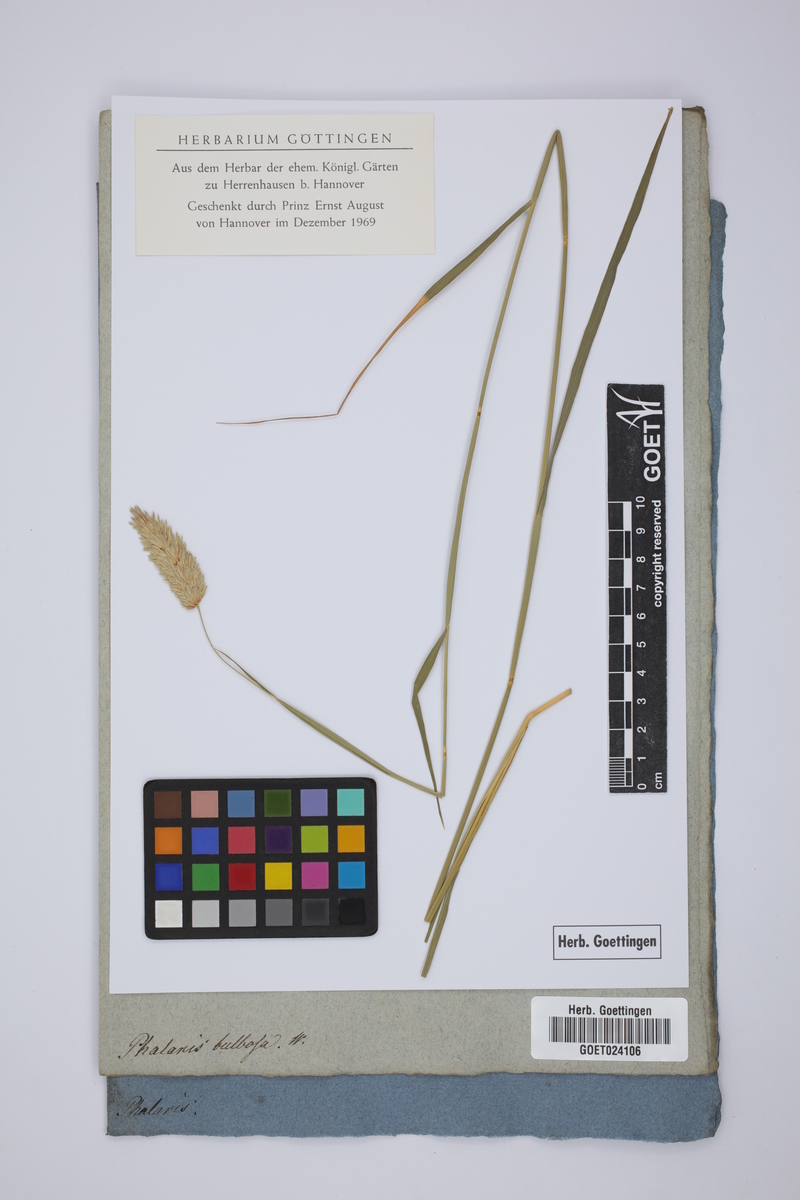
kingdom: Plantae
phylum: Tracheophyta
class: Liliopsida
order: Poales
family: Poaceae
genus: Phleum
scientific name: Phleum subulatum
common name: Italian timothy
